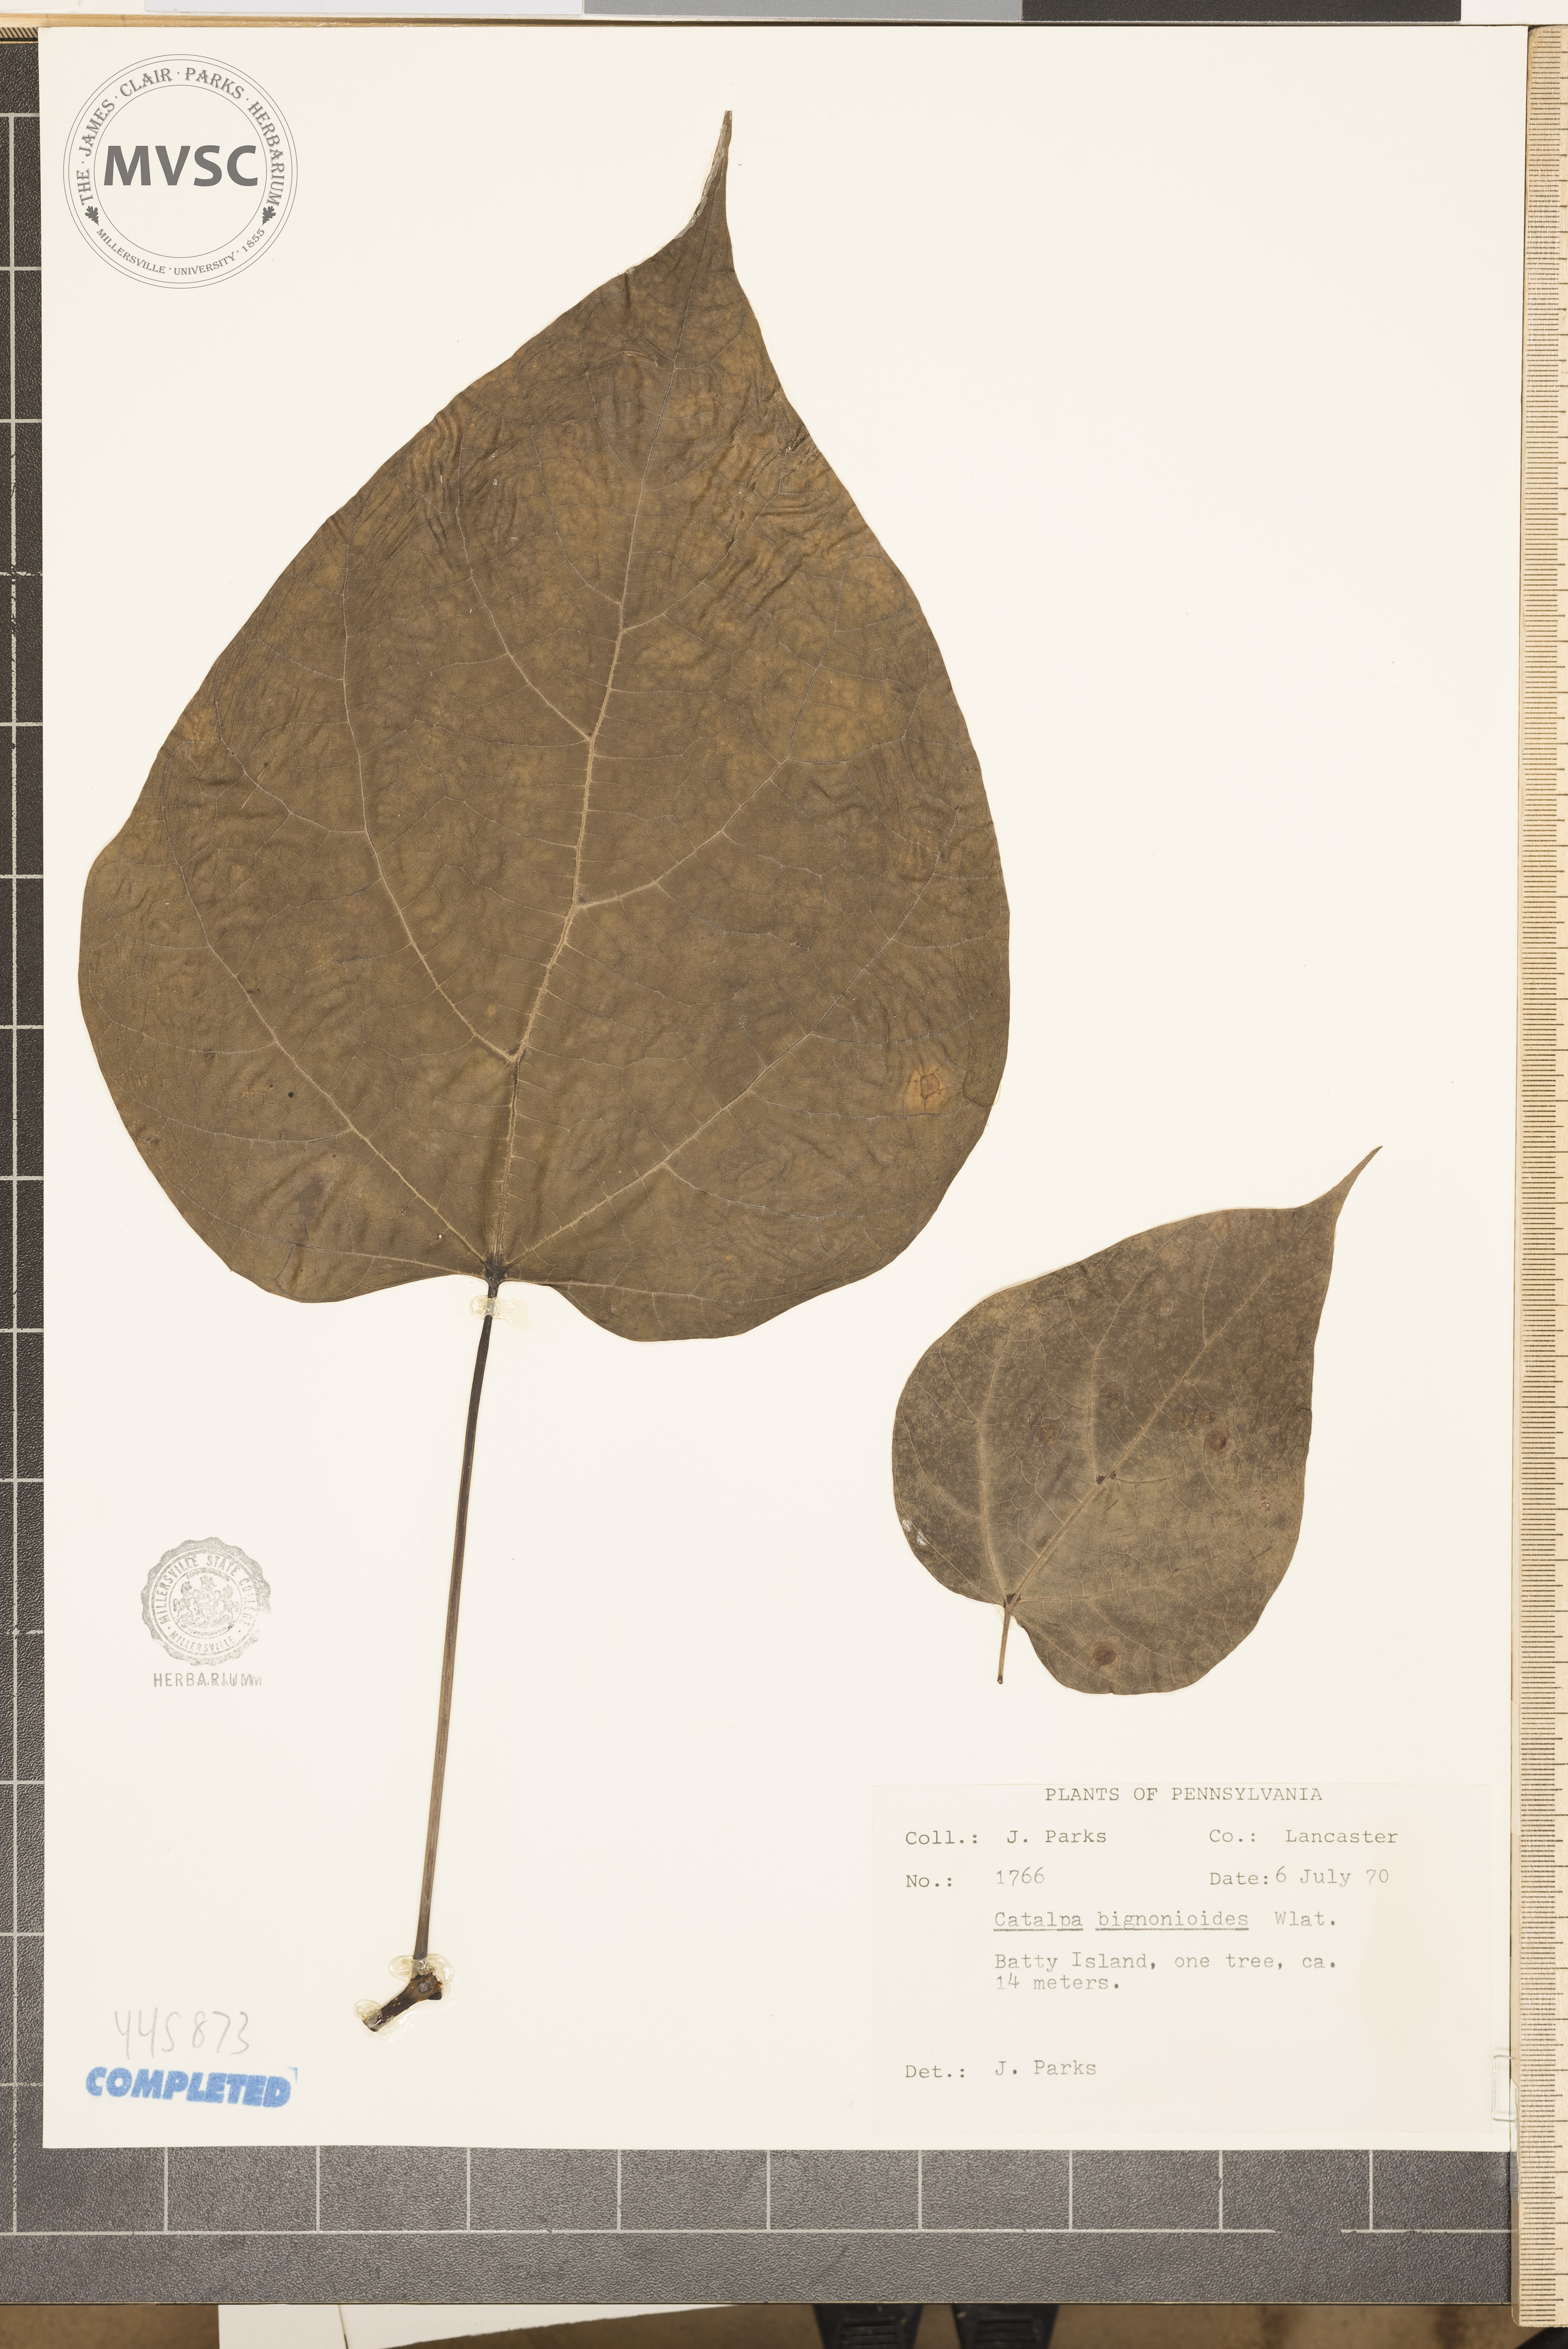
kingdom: Plantae
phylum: Tracheophyta
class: Magnoliopsida
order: Lamiales
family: Bignoniaceae
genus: Catalpa
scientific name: Catalpa bignonioides
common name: Southern catalpa
